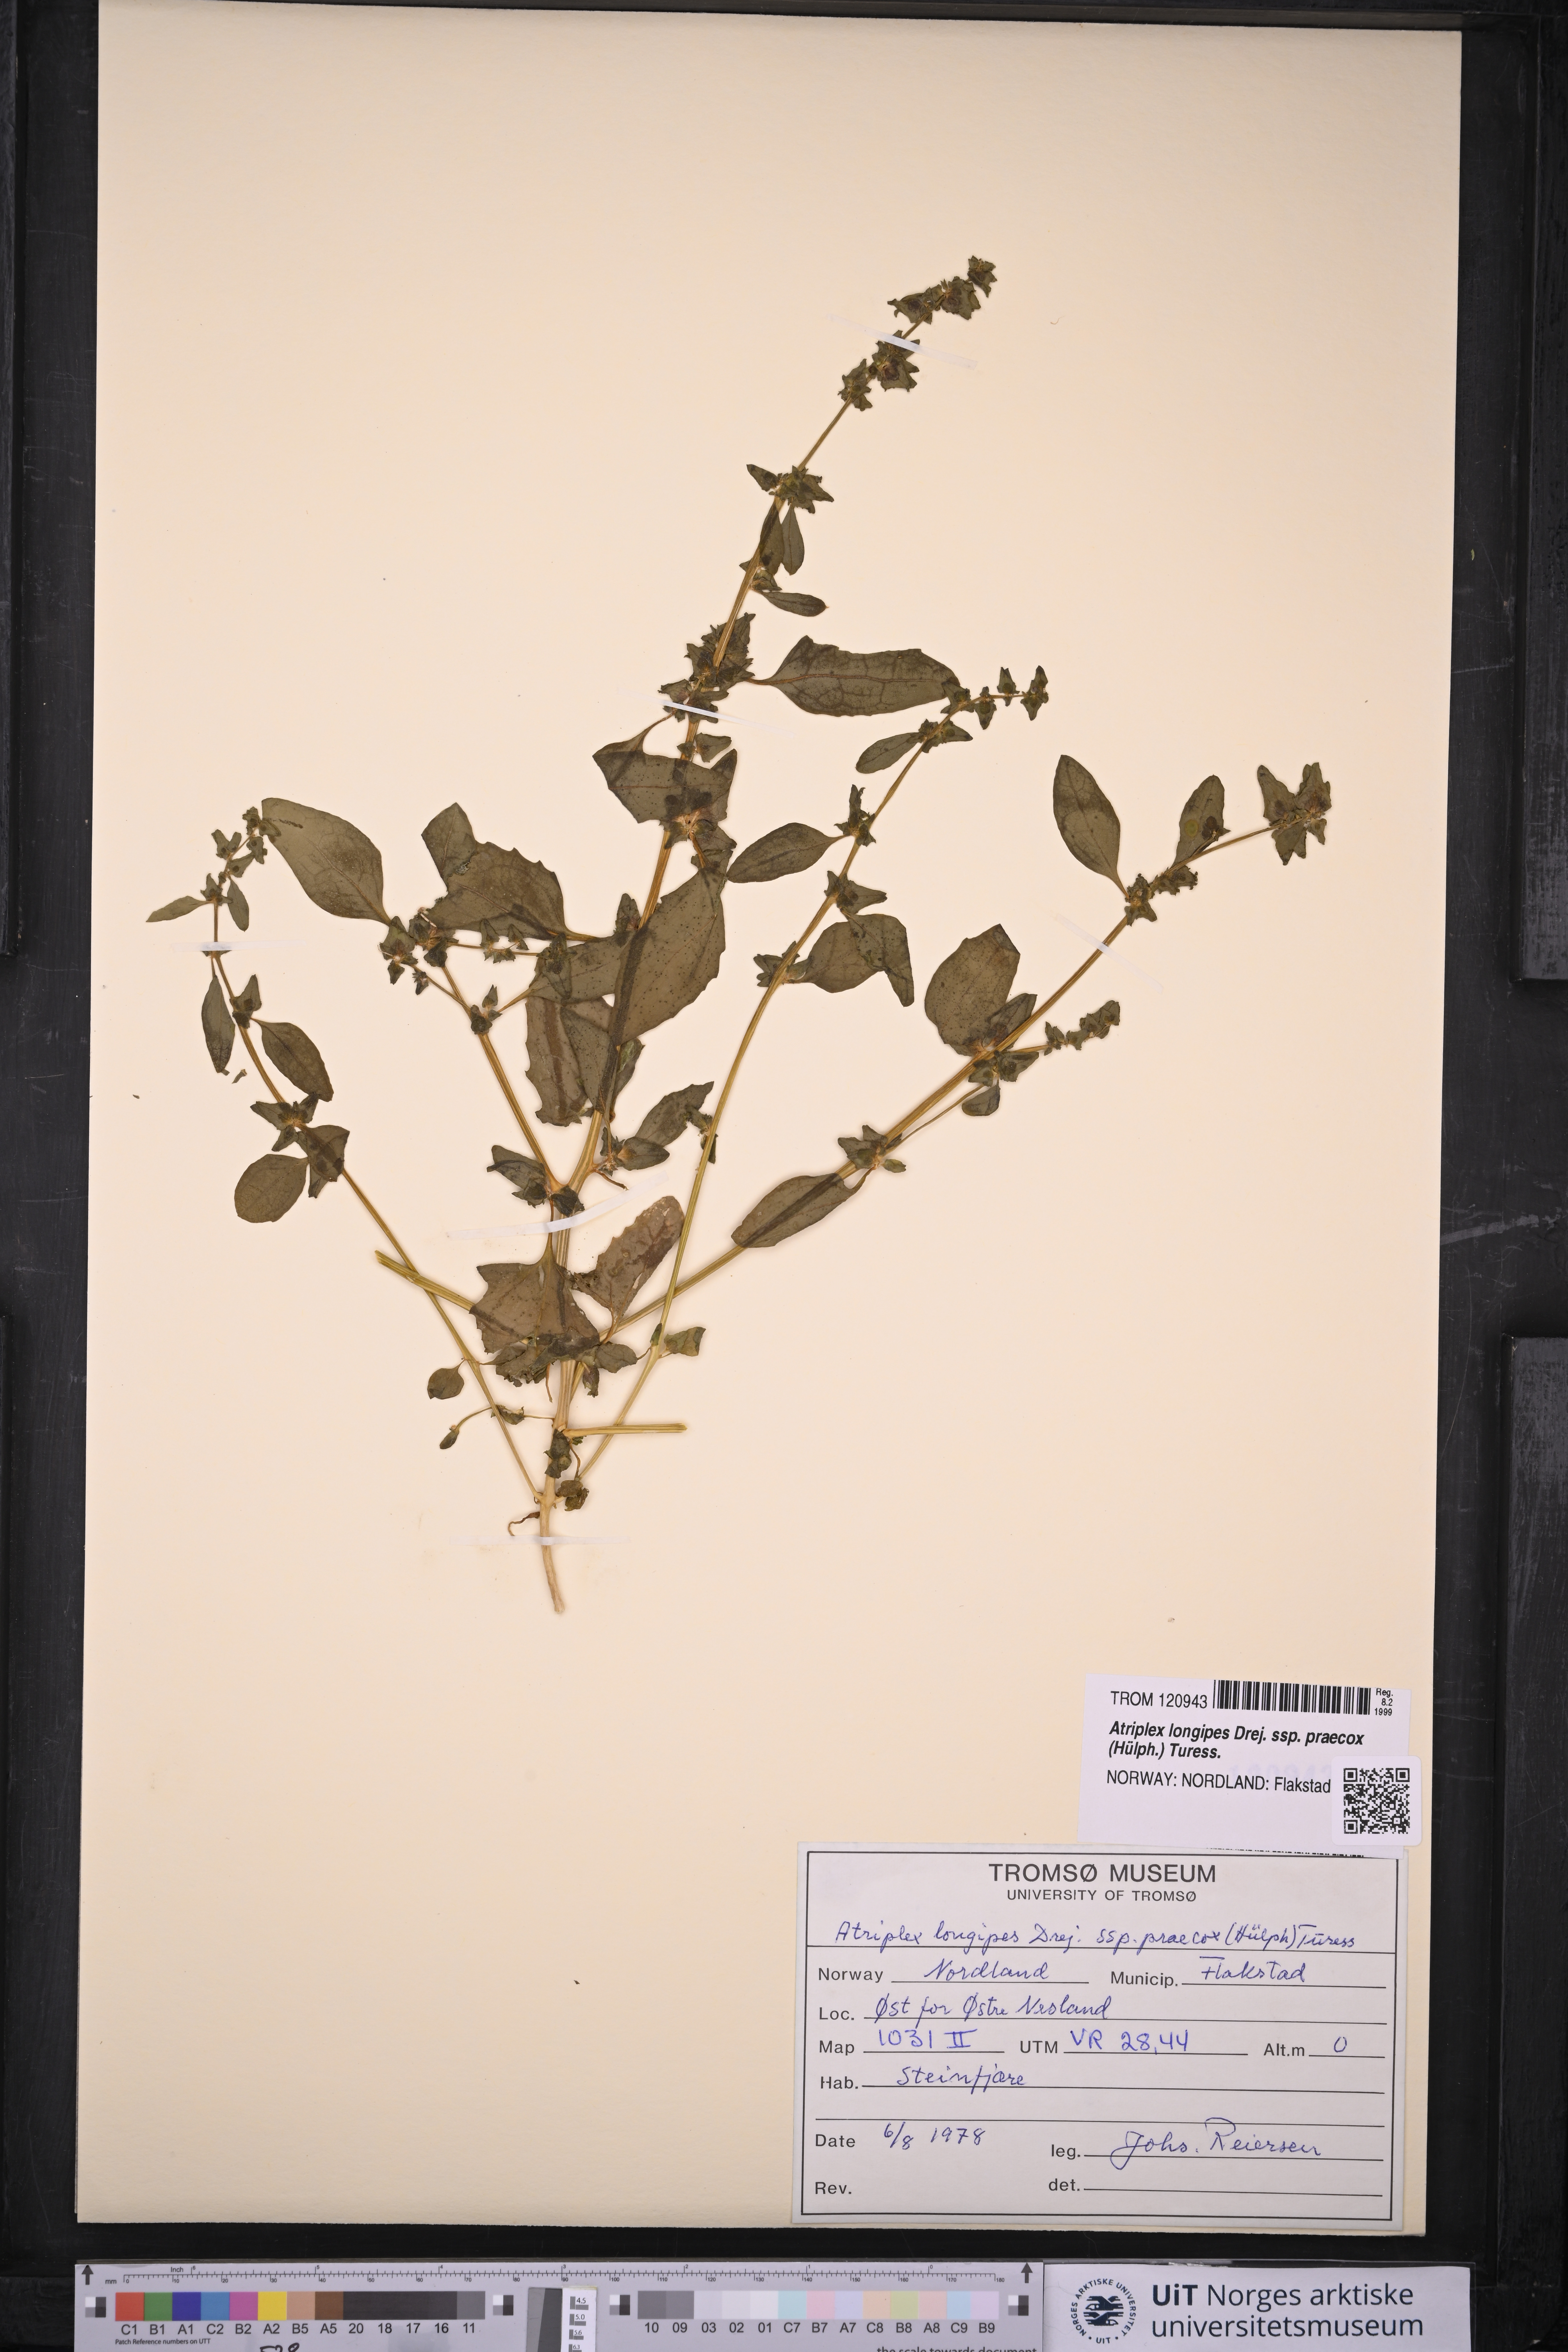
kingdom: Plantae
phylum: Tracheophyta
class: Magnoliopsida
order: Caryophyllales
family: Amaranthaceae
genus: Atriplex
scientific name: Atriplex praecox
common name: Early orache
